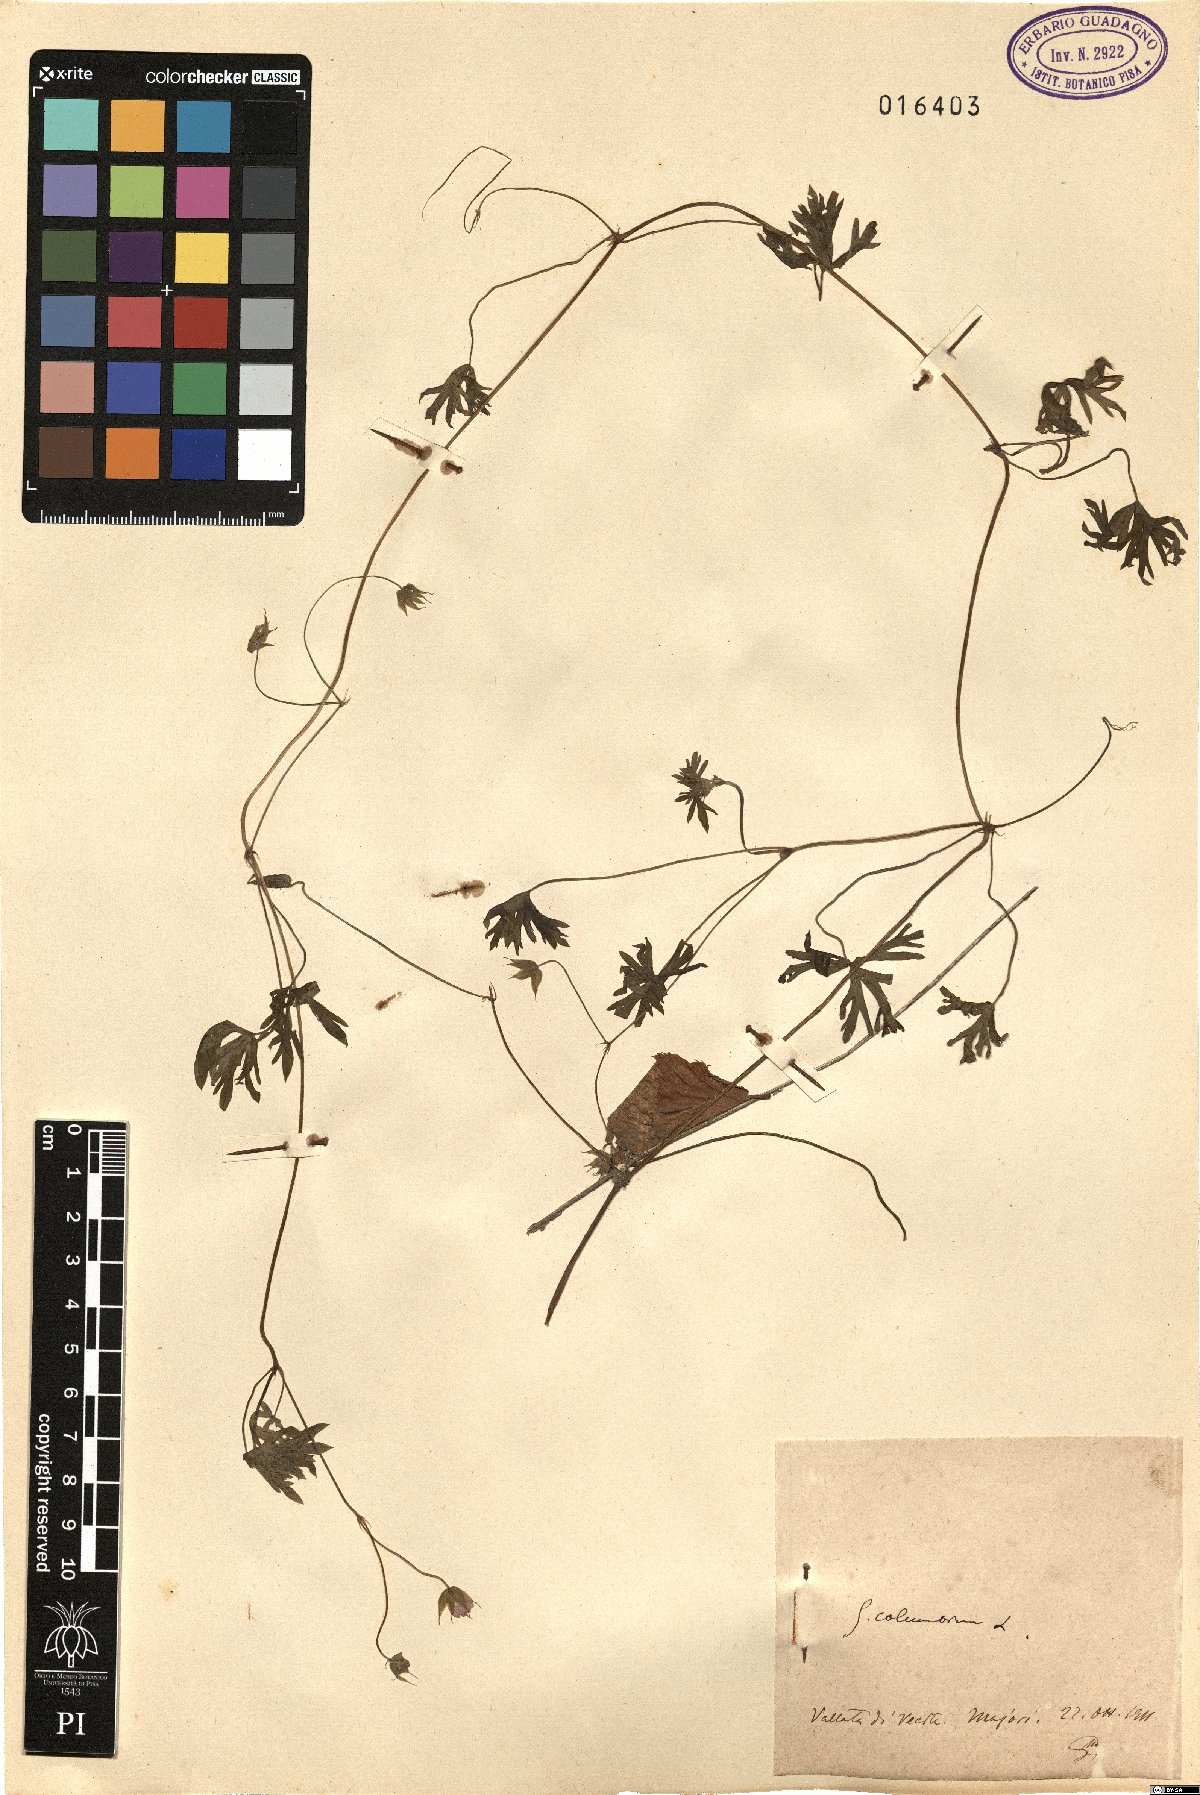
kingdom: Plantae
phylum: Tracheophyta
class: Magnoliopsida
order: Geraniales
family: Geraniaceae
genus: Geranium
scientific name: Geranium columbinum
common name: Long-stalked crane's-bill
